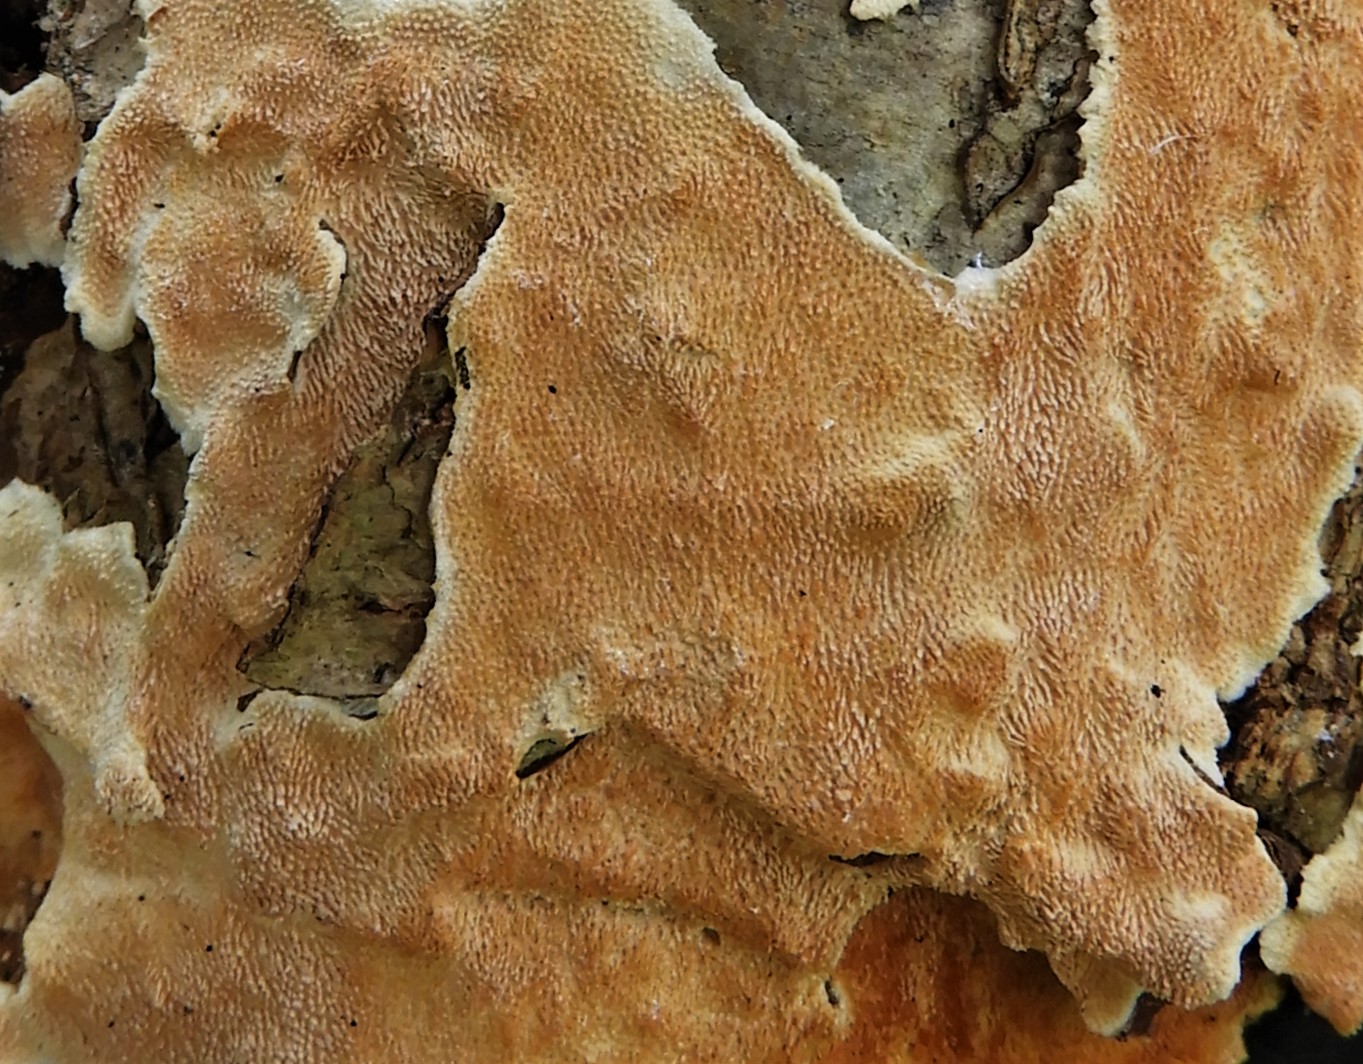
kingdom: Fungi
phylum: Basidiomycota
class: Agaricomycetes
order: Polyporales
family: Steccherinaceae
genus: Steccherinum
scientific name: Steccherinum ochraceum
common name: almindelig skønpig
